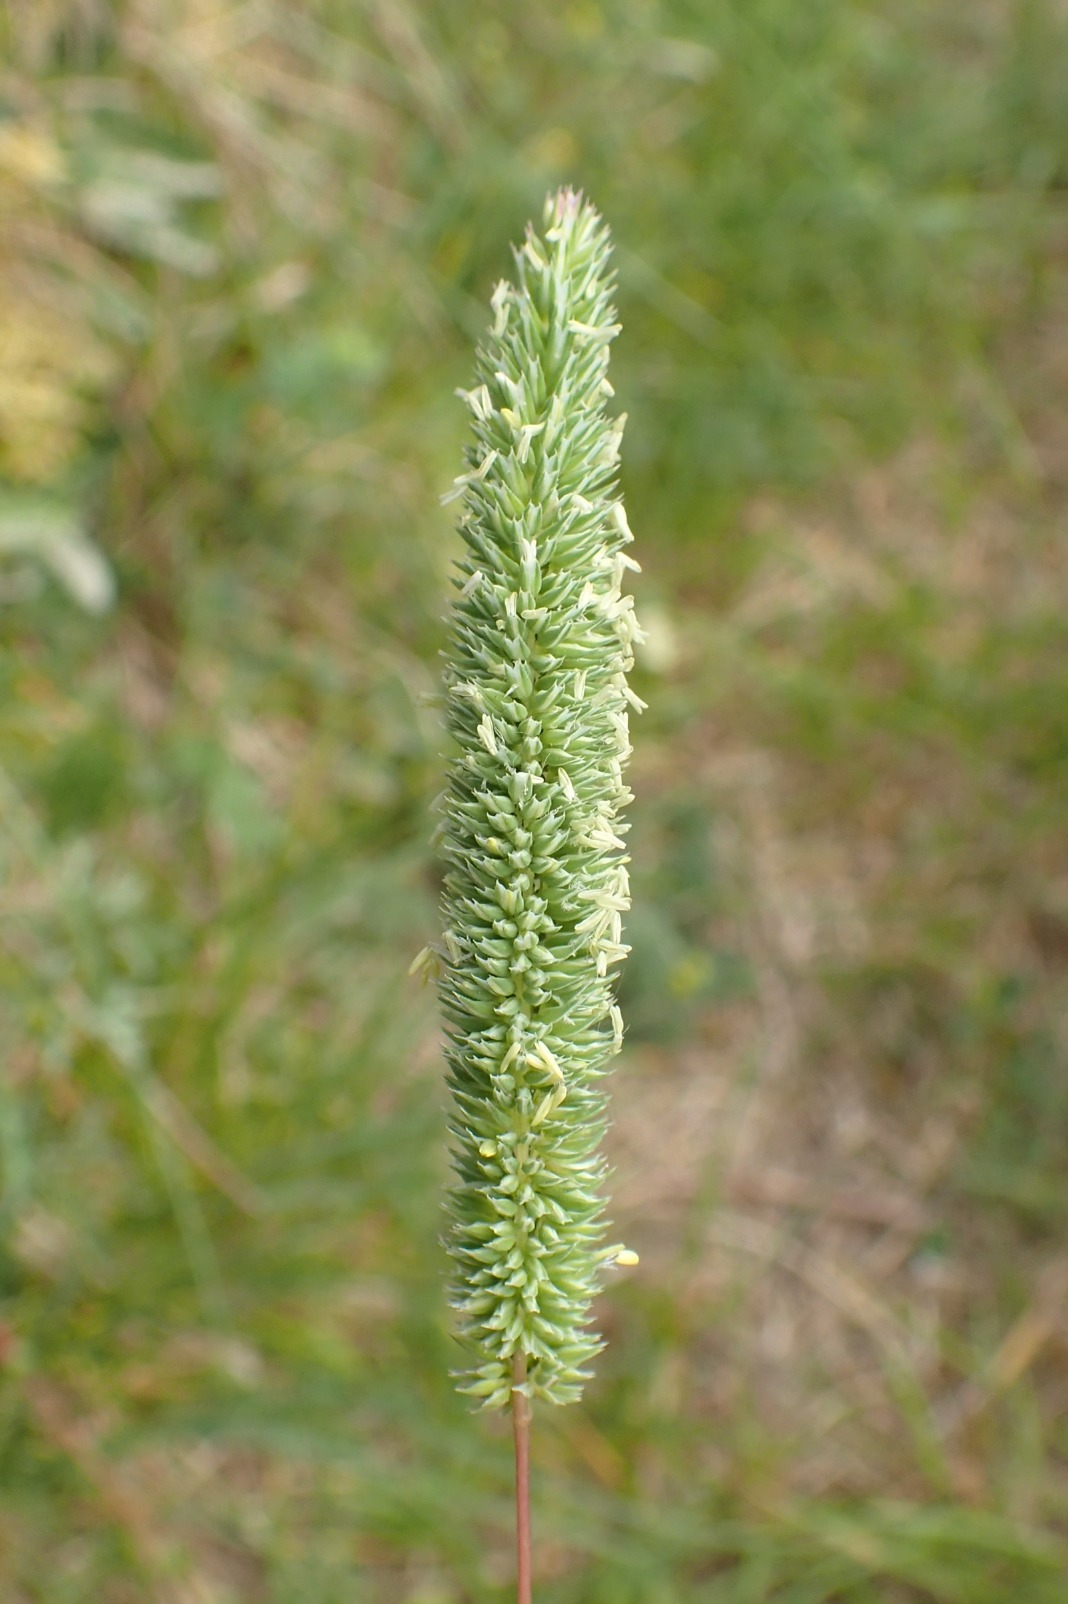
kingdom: Plantae
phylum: Tracheophyta
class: Liliopsida
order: Poales
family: Poaceae
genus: Phleum
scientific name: Phleum phleoides
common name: Glat rottehale
